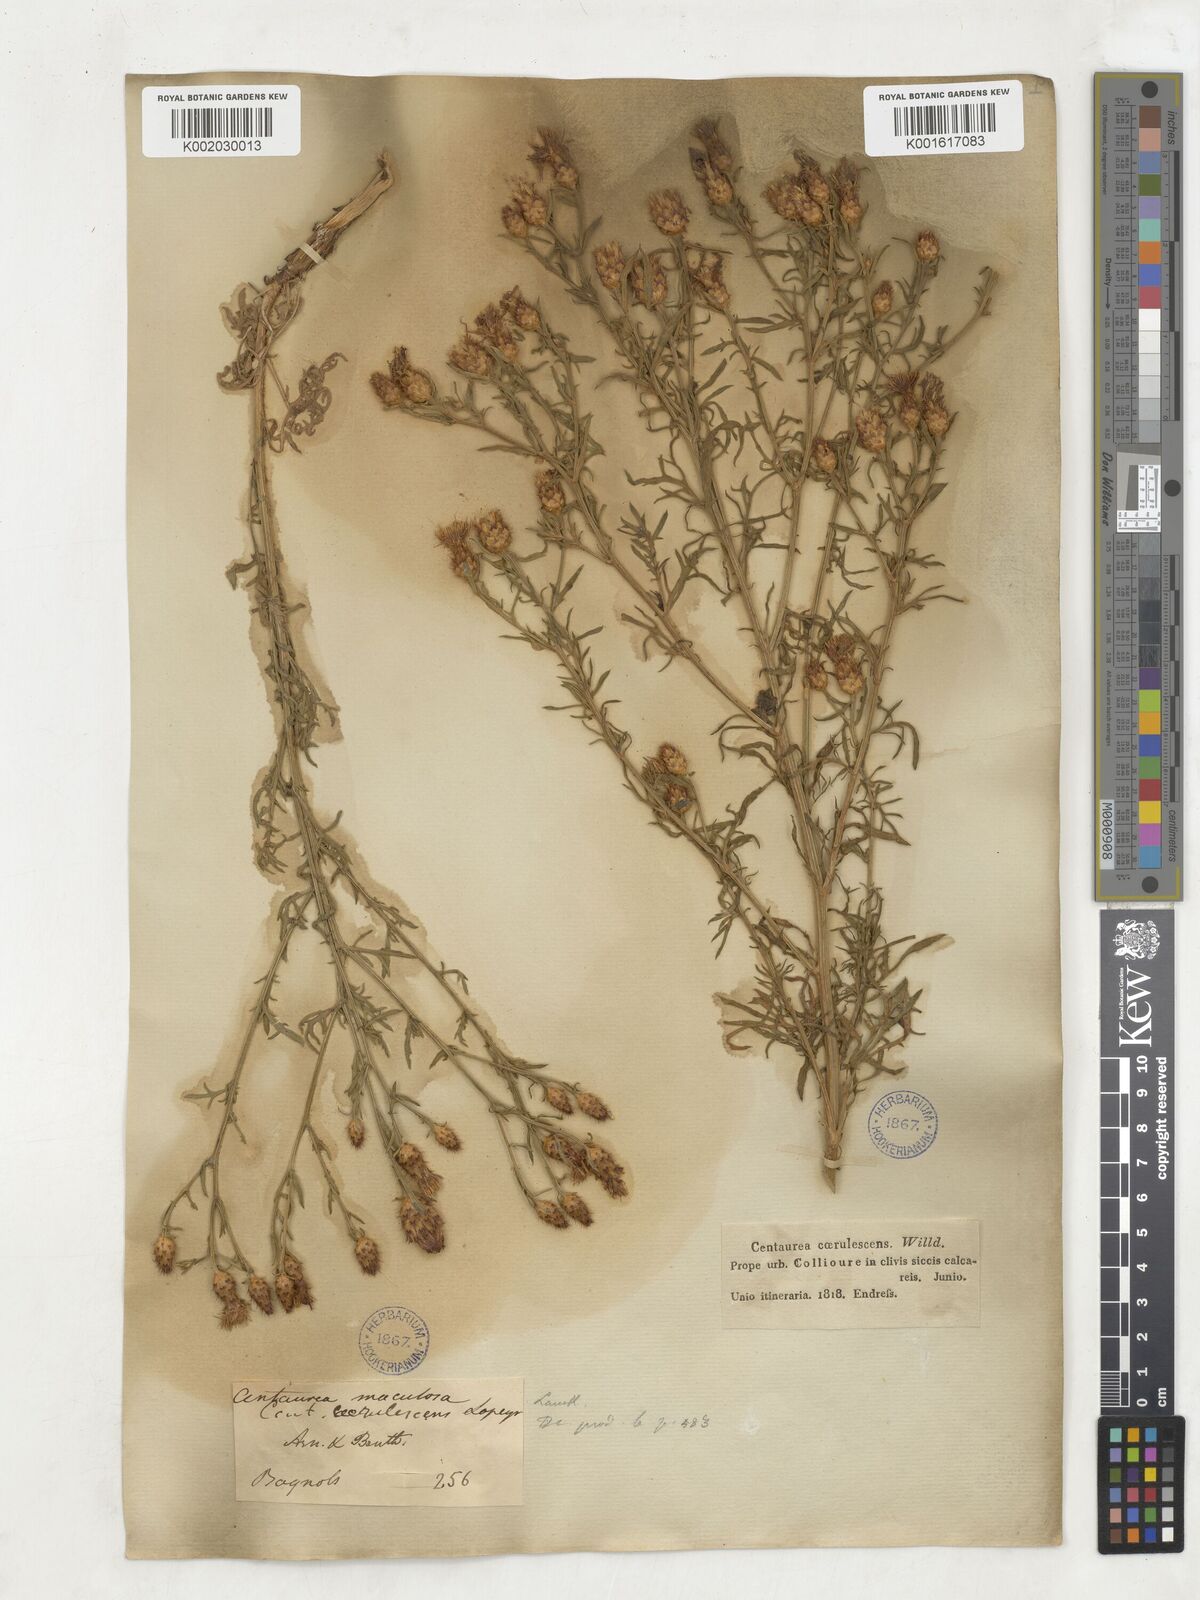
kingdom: Plantae
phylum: Tracheophyta
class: Magnoliopsida
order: Asterales
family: Asteraceae
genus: Centaurea
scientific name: Centaurea stoebe
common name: Spotted knapweed
